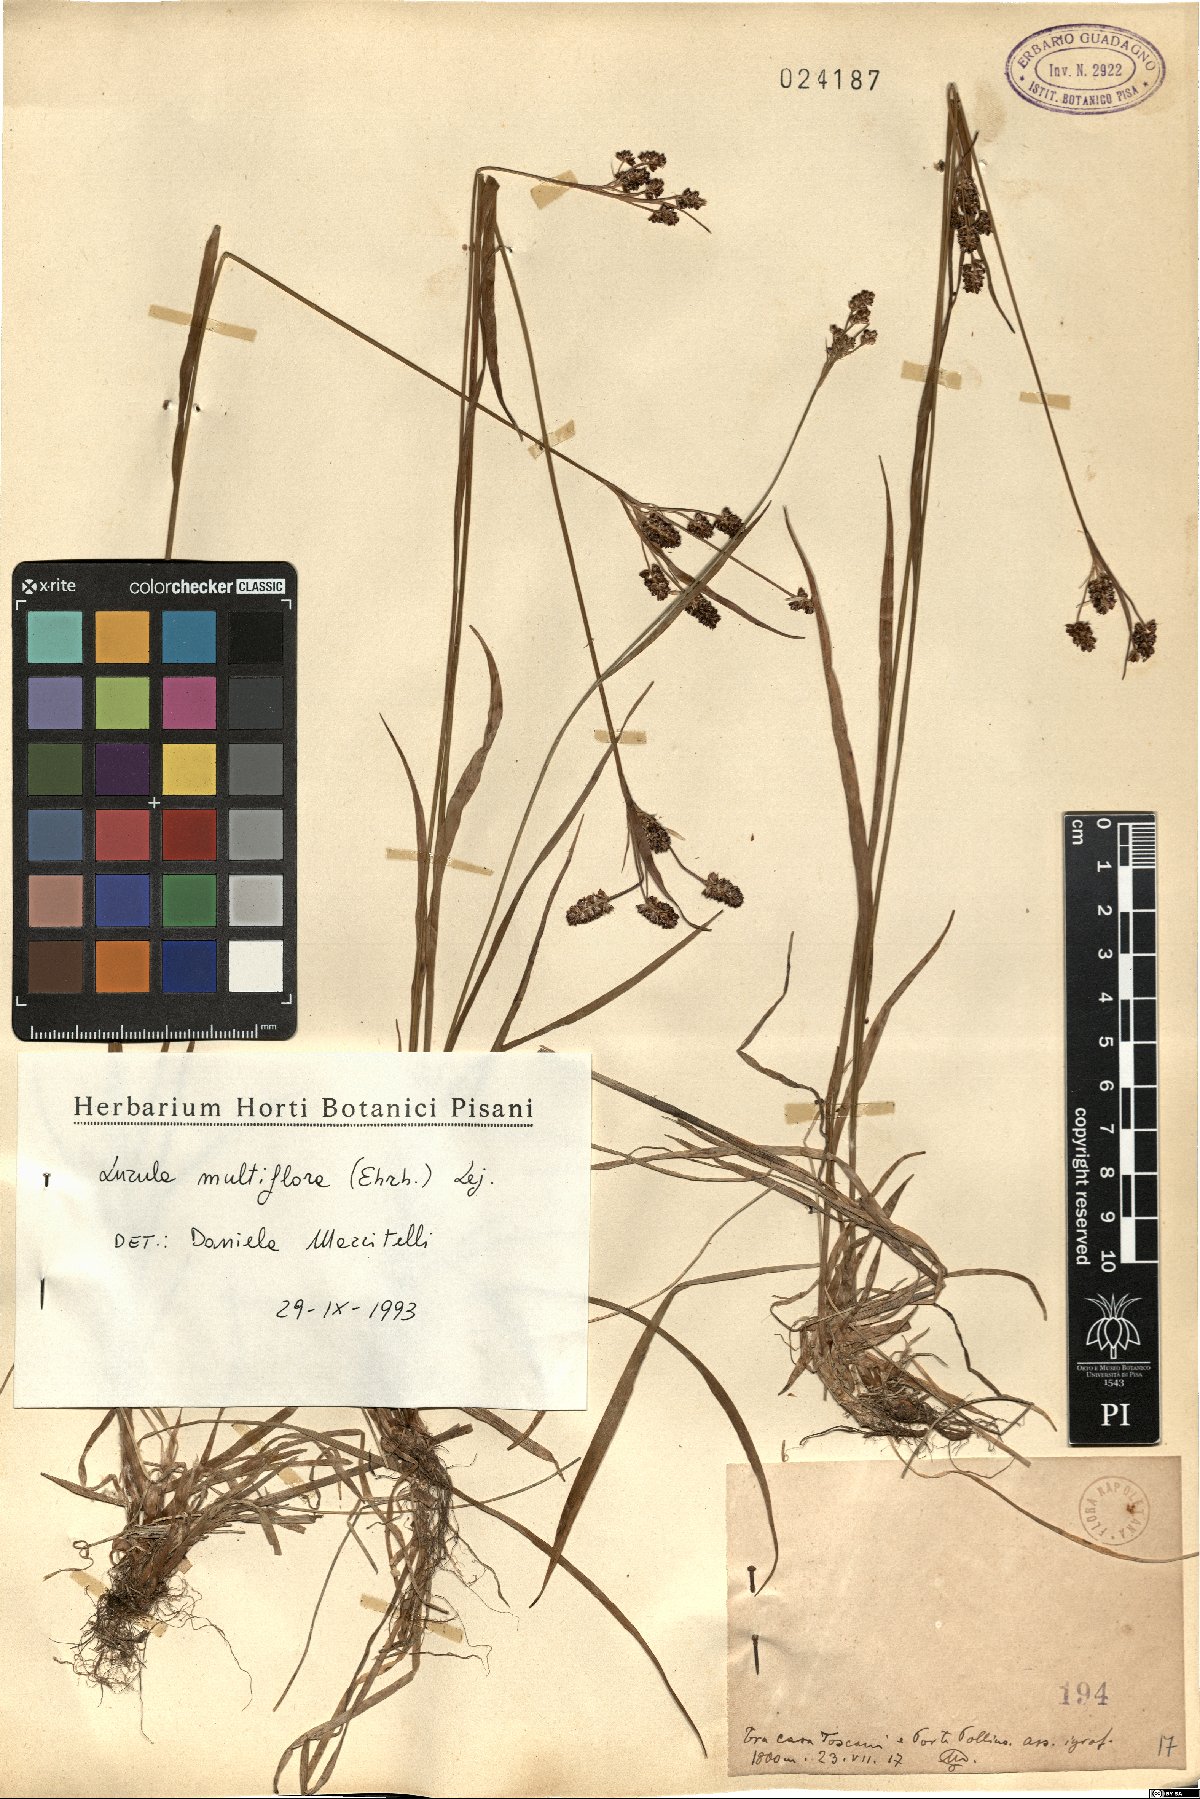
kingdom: Plantae
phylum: Tracheophyta
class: Liliopsida
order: Poales
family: Juncaceae
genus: Luzula
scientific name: Luzula multiflora
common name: Heath wood-rush
